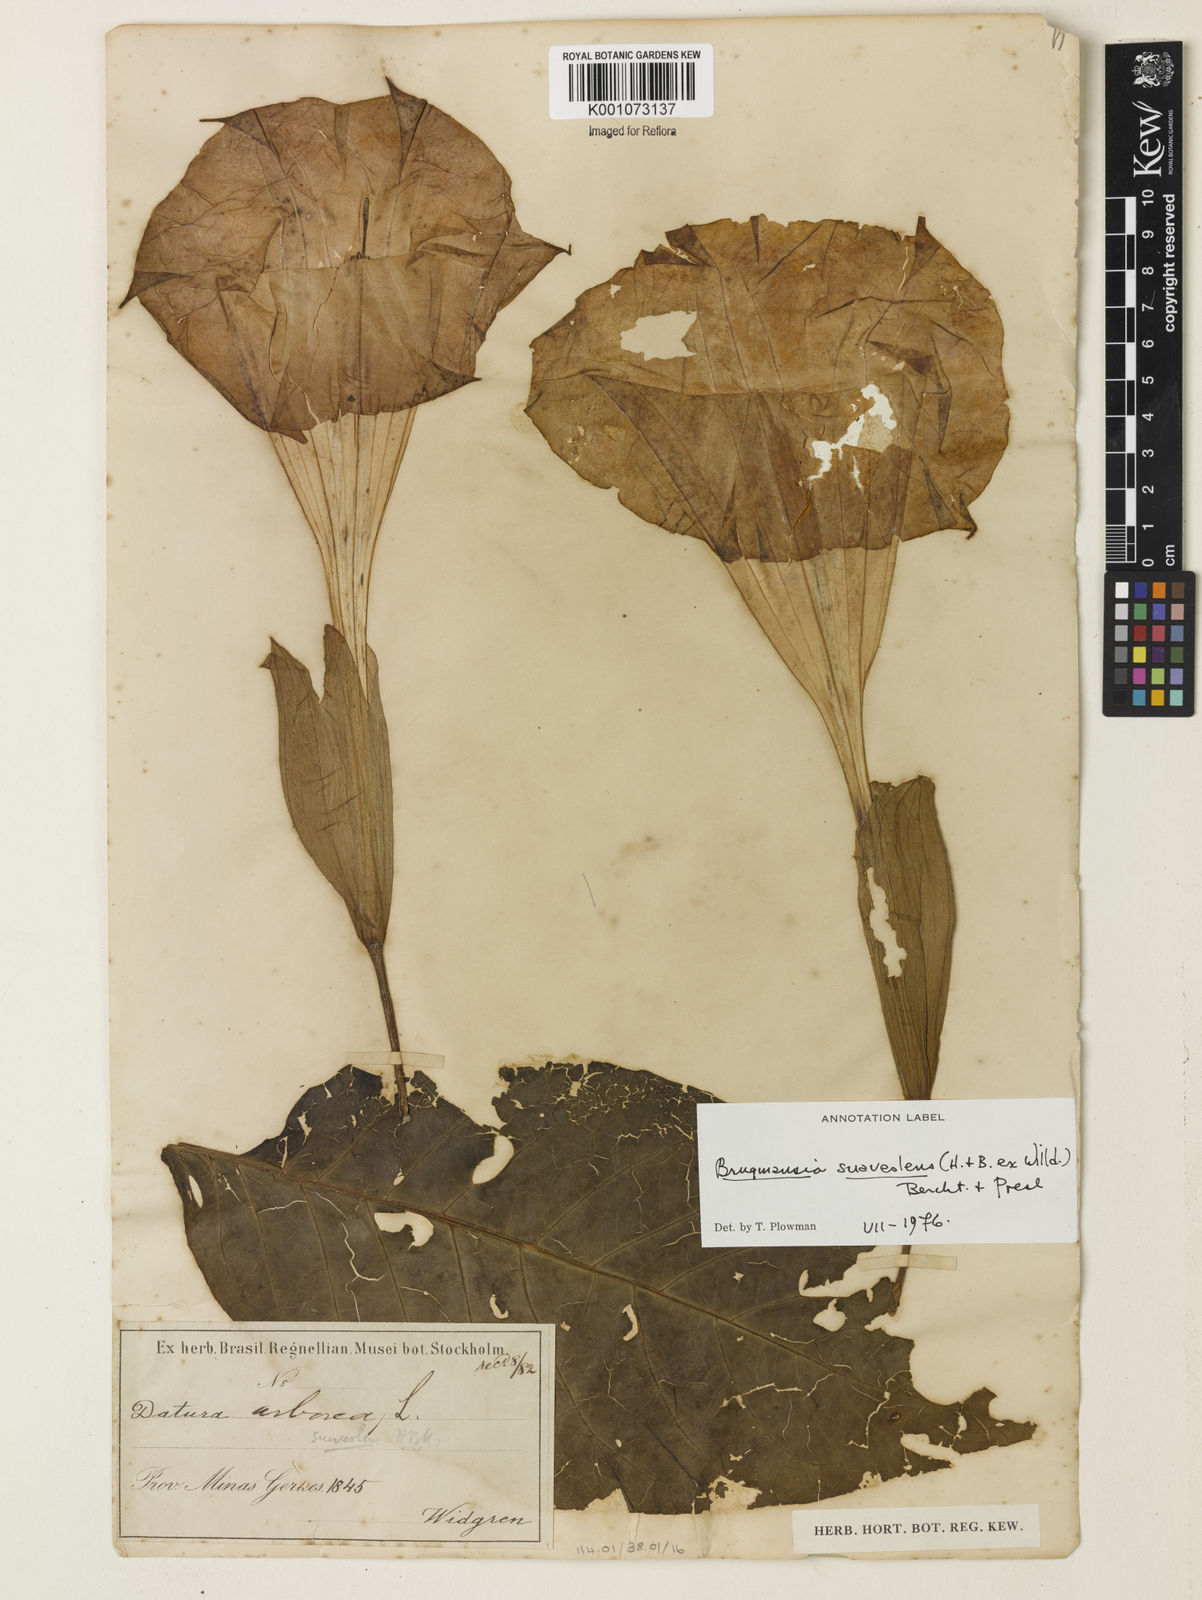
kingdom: Plantae
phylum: Tracheophyta
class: Magnoliopsida
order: Solanales
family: Solanaceae
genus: Brugmansia
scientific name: Brugmansia
